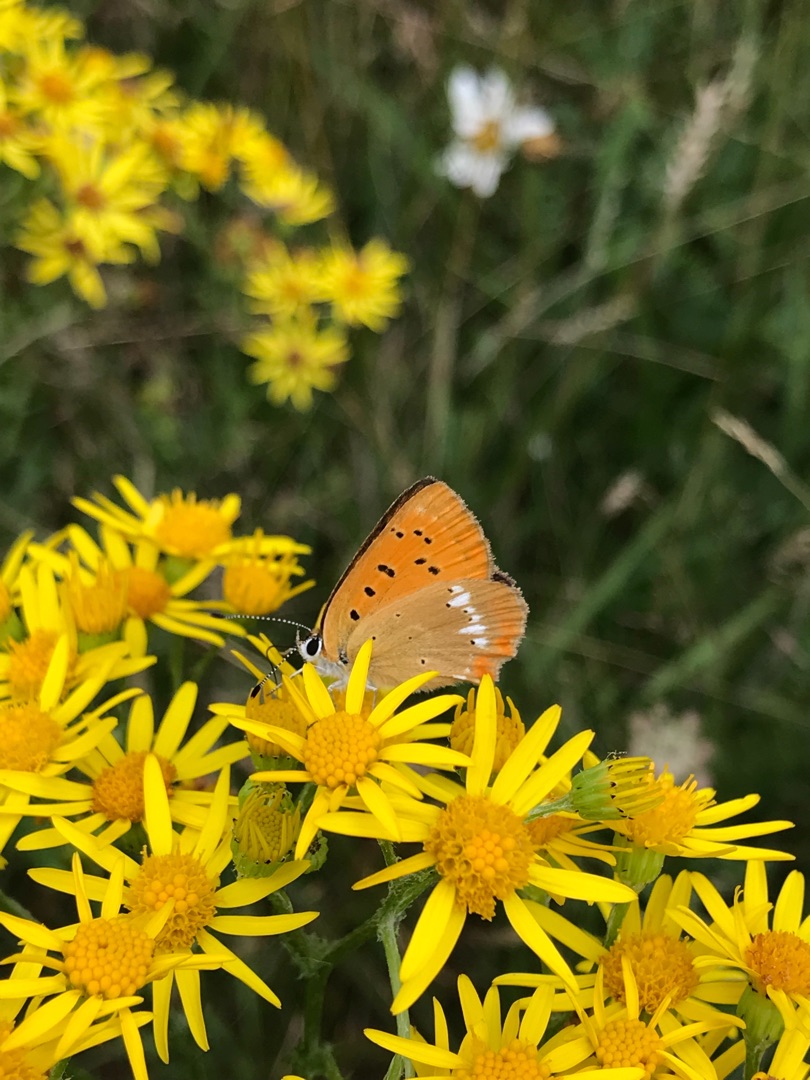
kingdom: Animalia
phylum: Arthropoda
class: Insecta
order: Lepidoptera
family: Lycaenidae
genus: Lycaena
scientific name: Lycaena virgaureae
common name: Dukatsommerfugl
